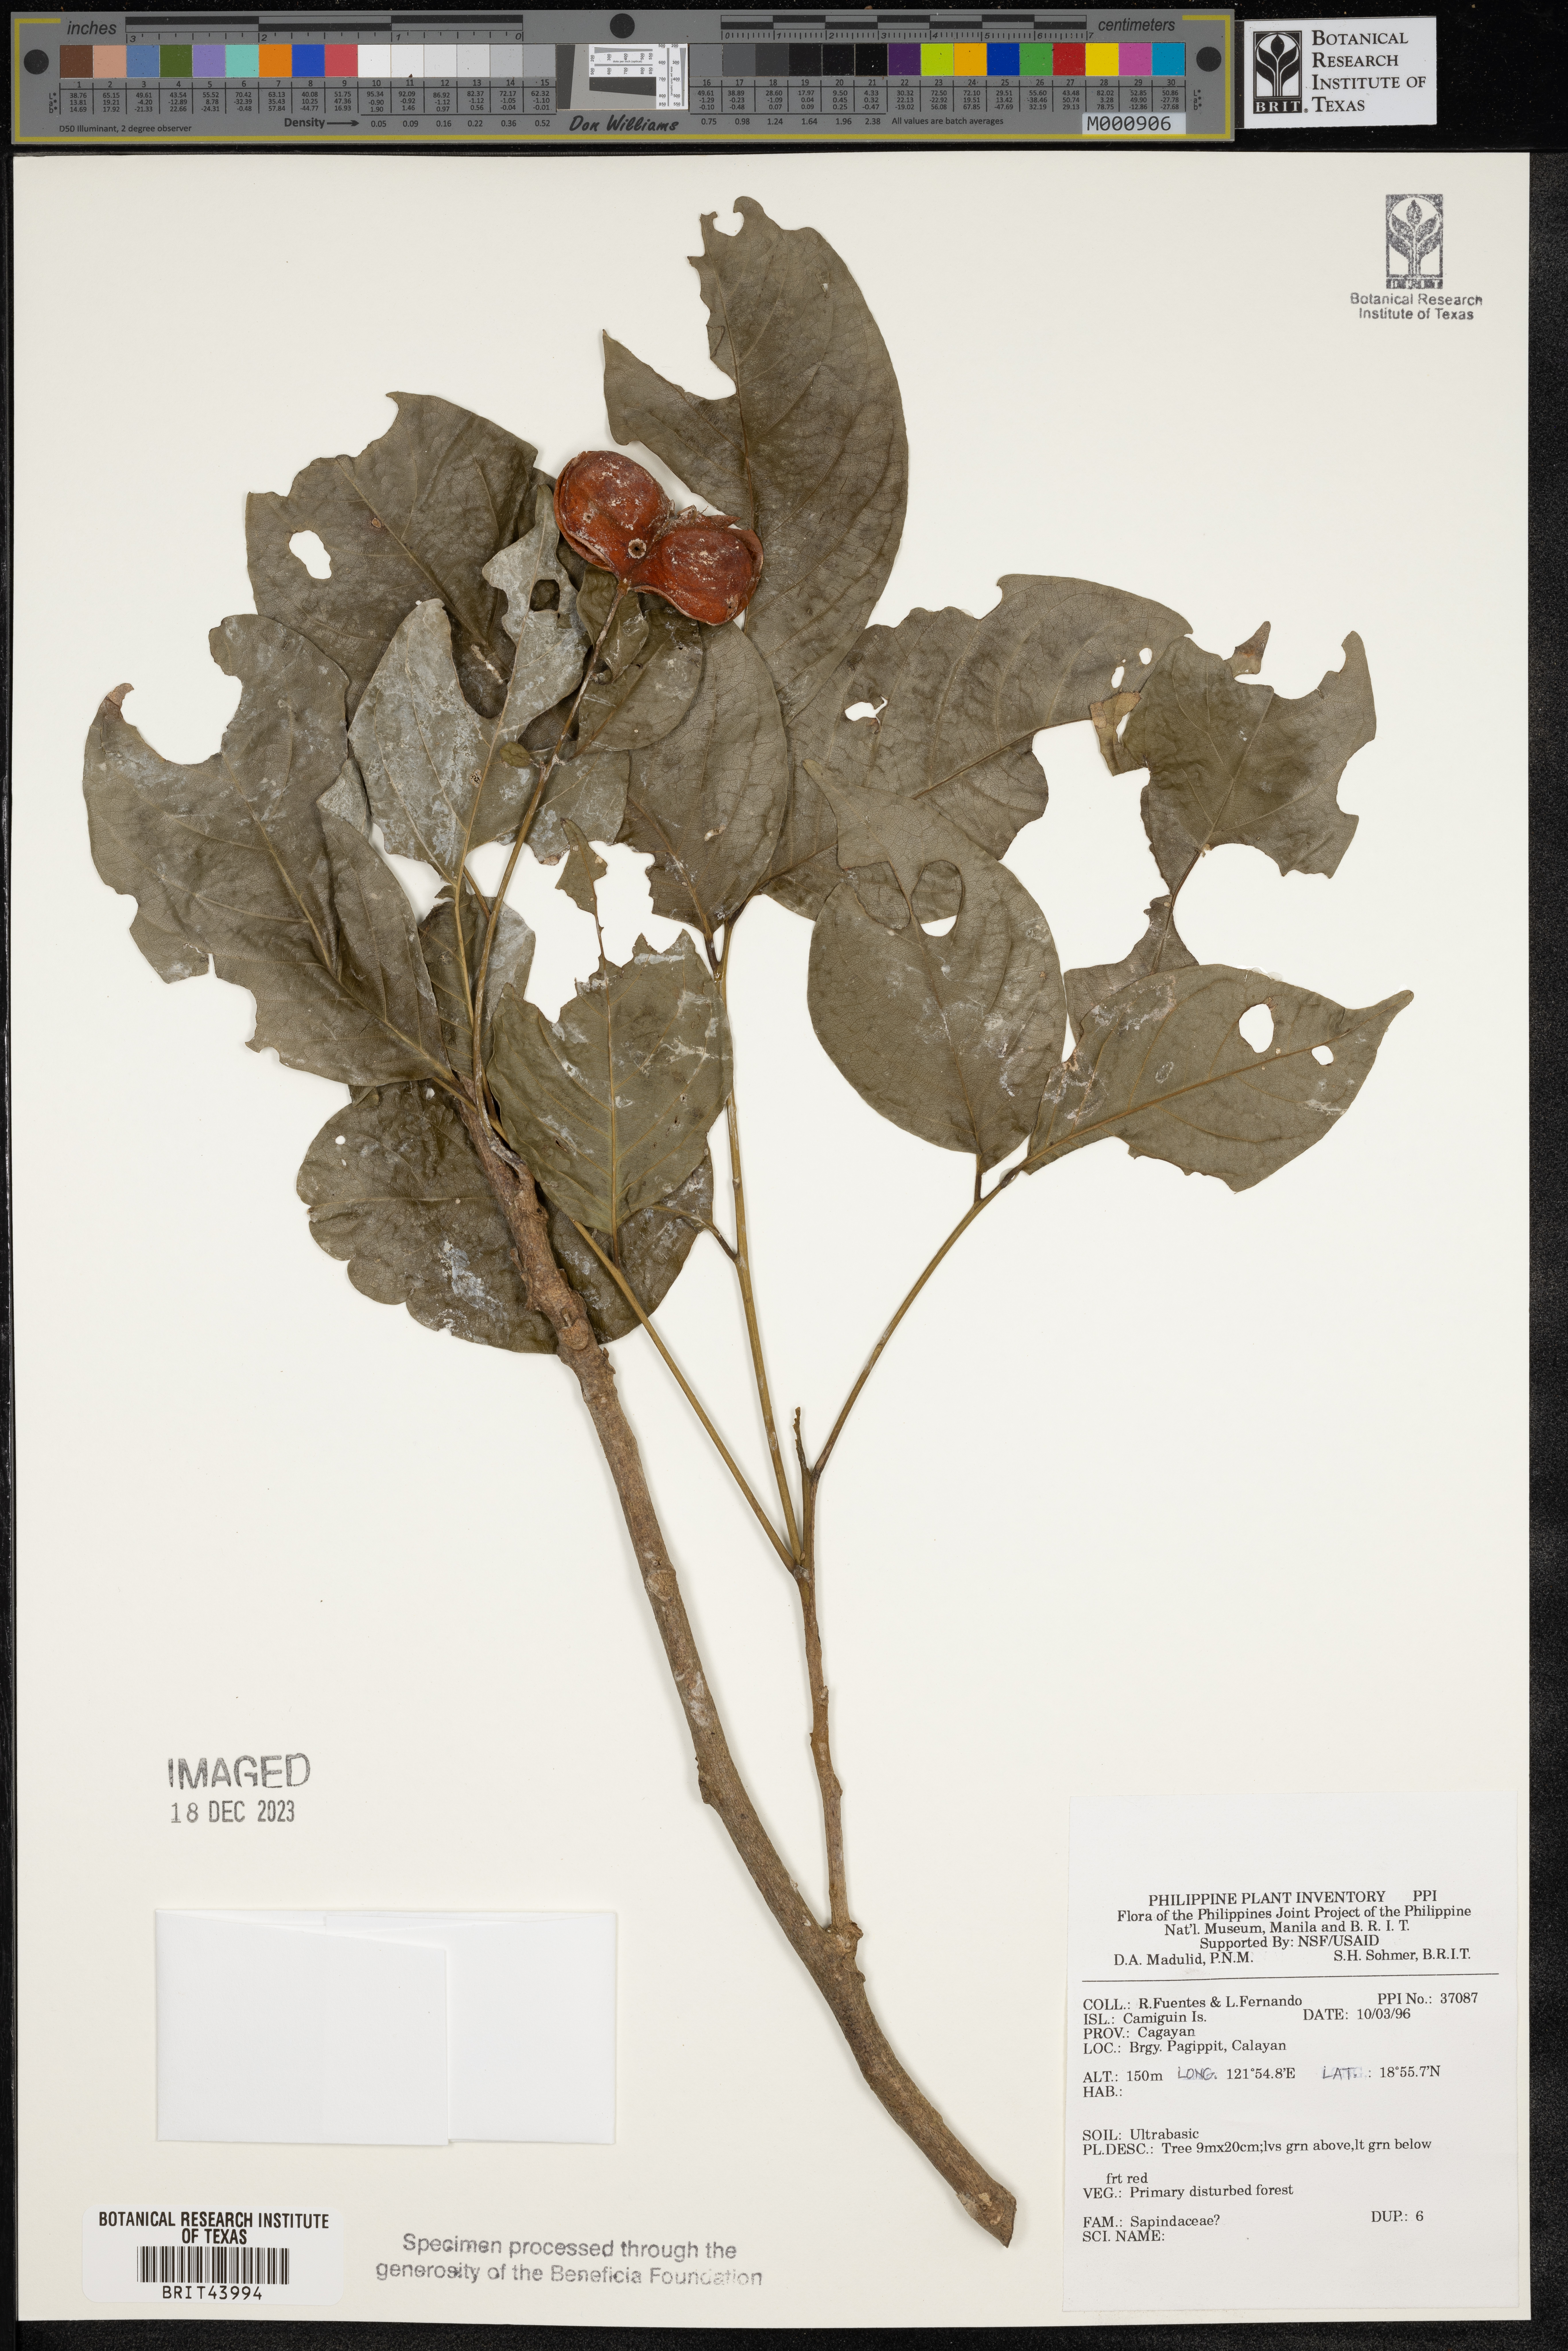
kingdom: Plantae
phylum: Tracheophyta
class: Magnoliopsida
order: Sapindales
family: Sapindaceae
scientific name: Sapindaceae
